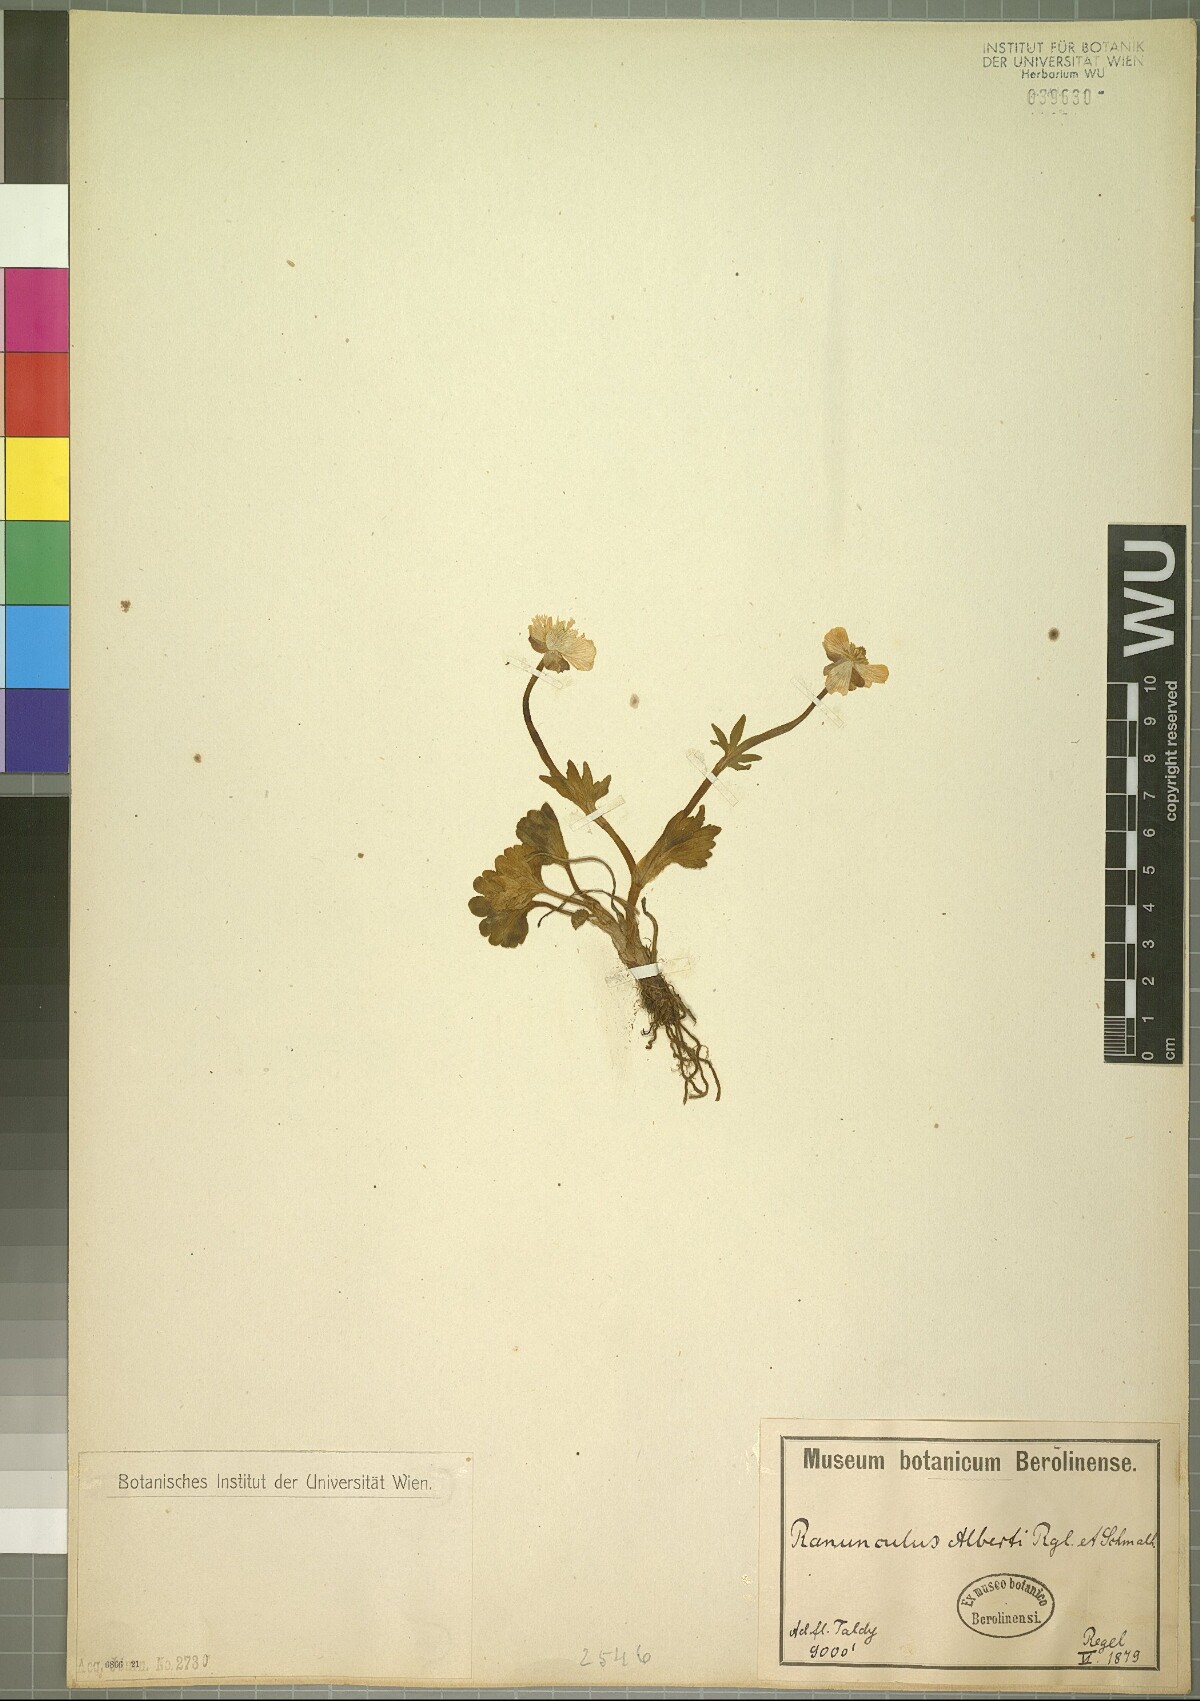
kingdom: Plantae
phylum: Tracheophyta
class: Magnoliopsida
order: Ranunculales
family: Ranunculaceae
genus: Ranunculus
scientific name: Ranunculus alberti
